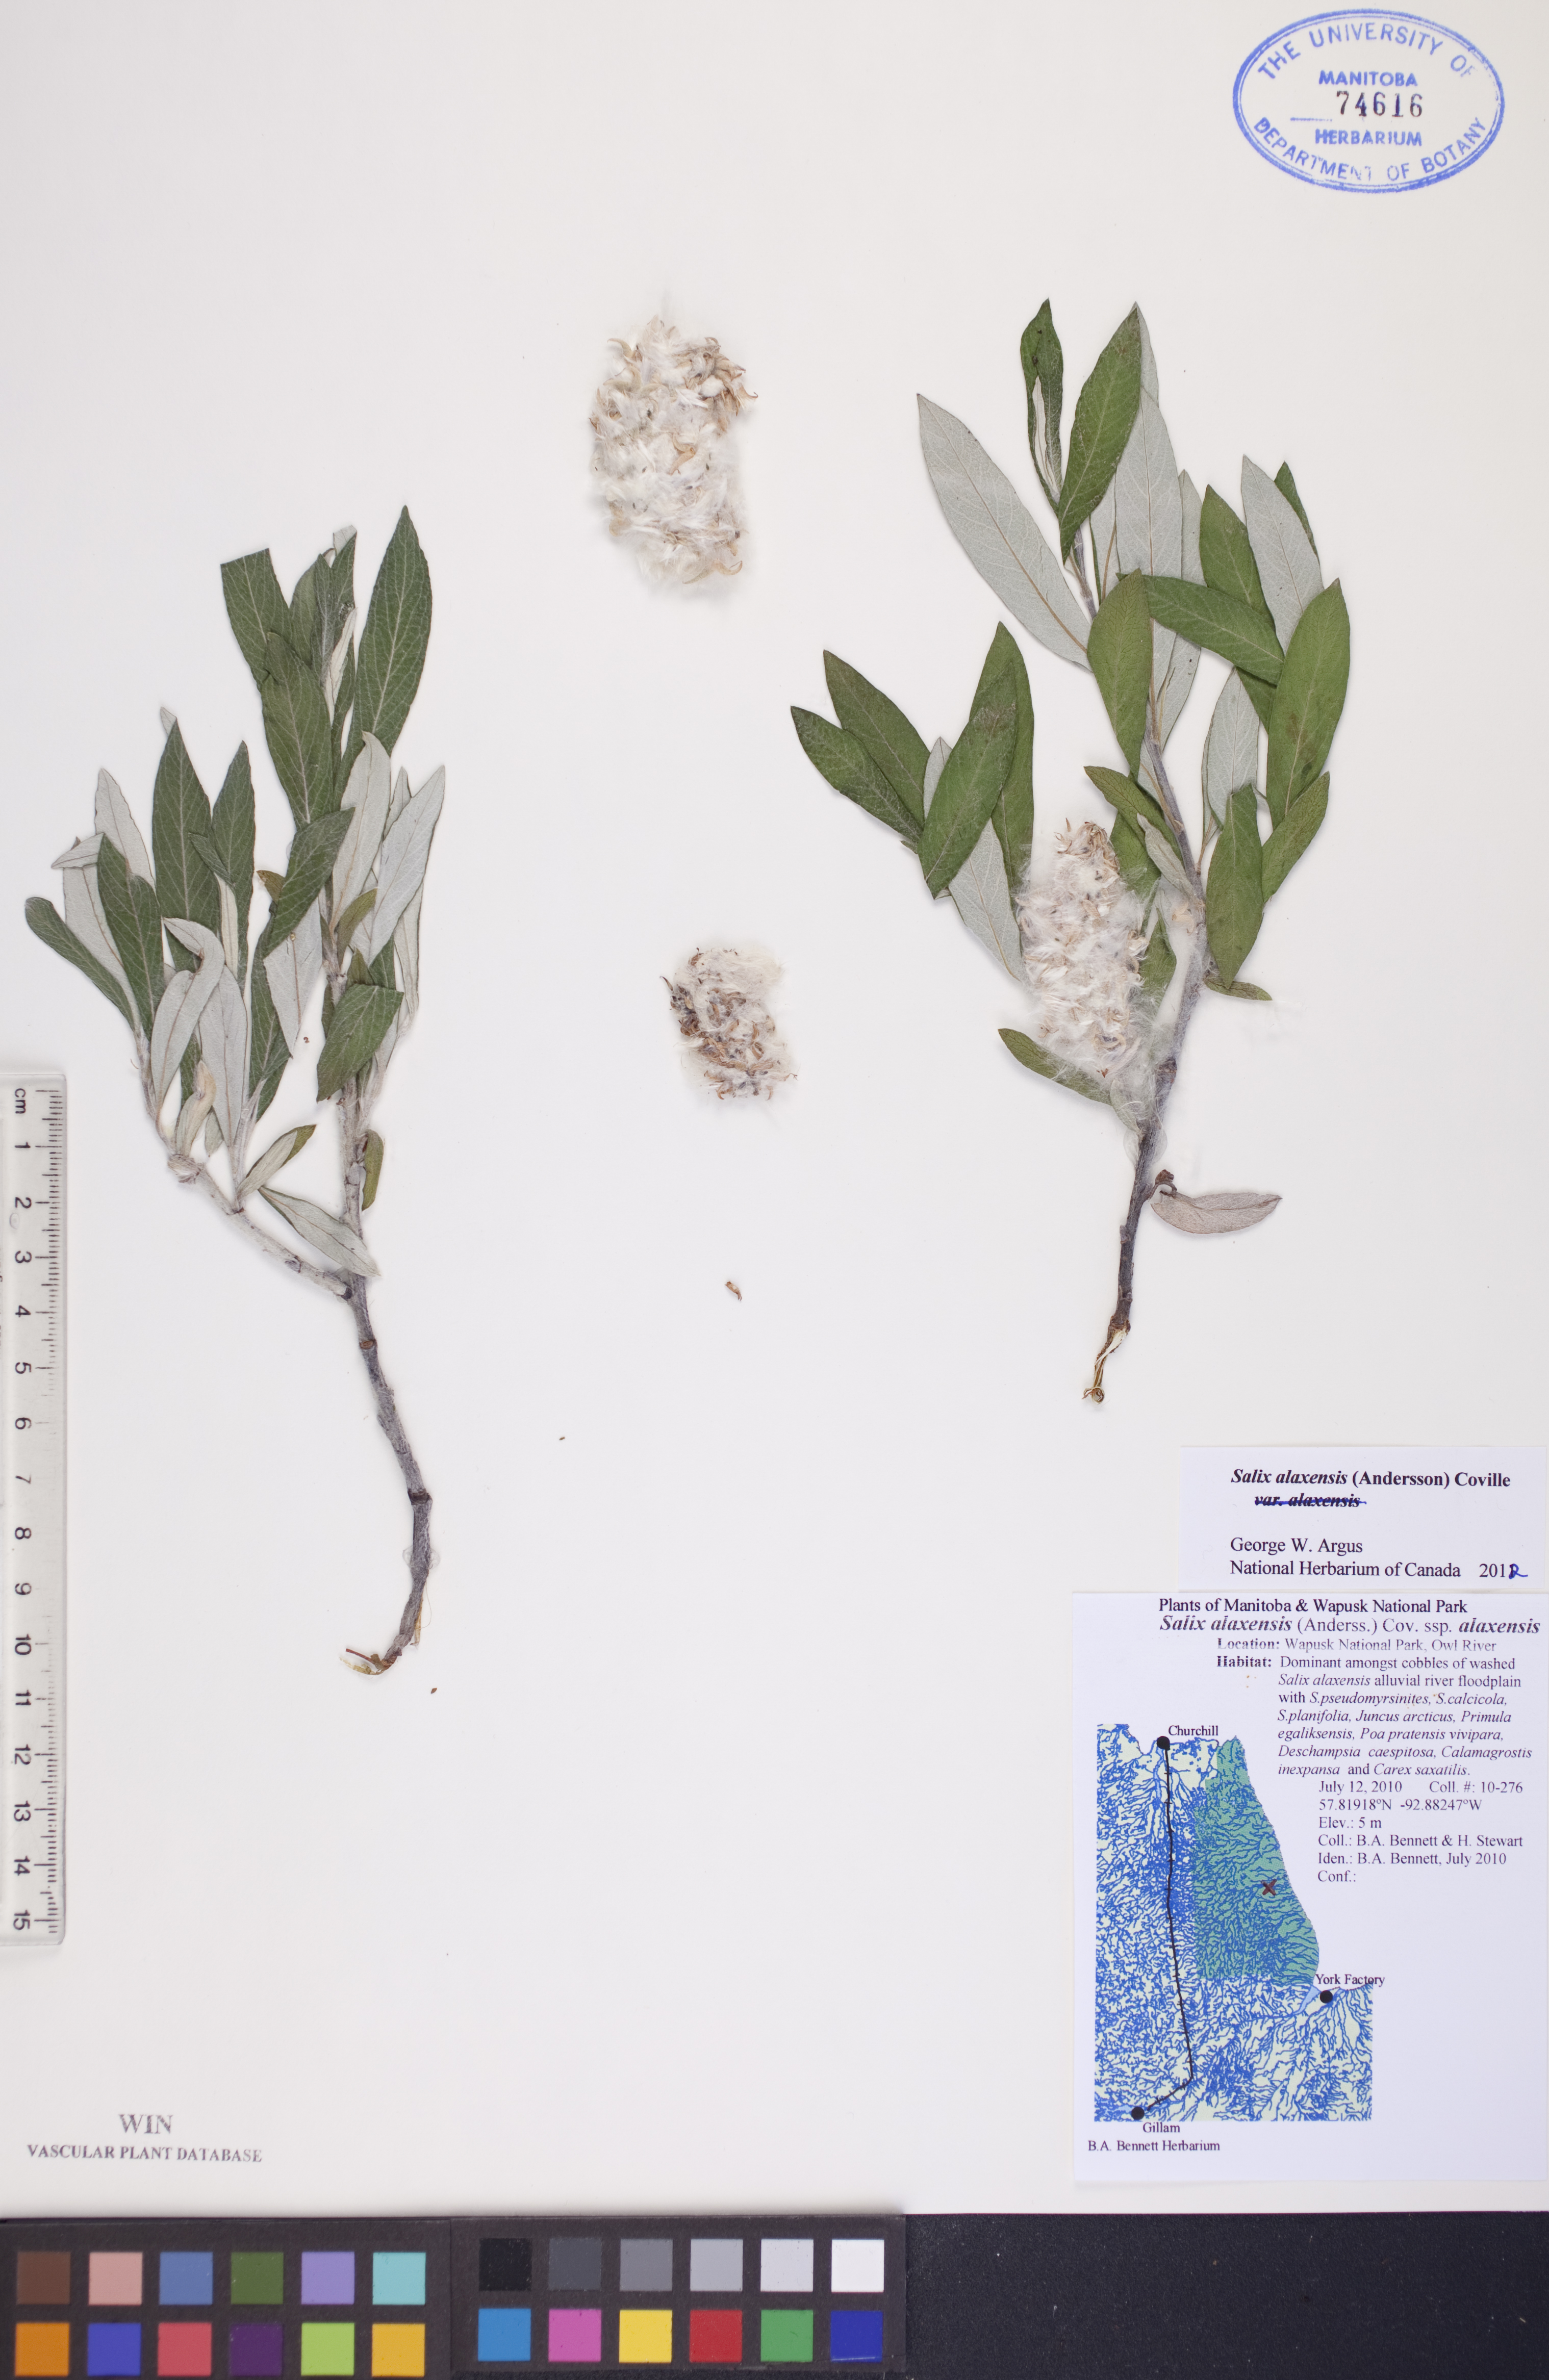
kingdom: Plantae
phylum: Tracheophyta
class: Magnoliopsida
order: Malpighiales
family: Salicaceae
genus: Salix
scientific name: Salix alaxensis
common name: Feltleaf willow
